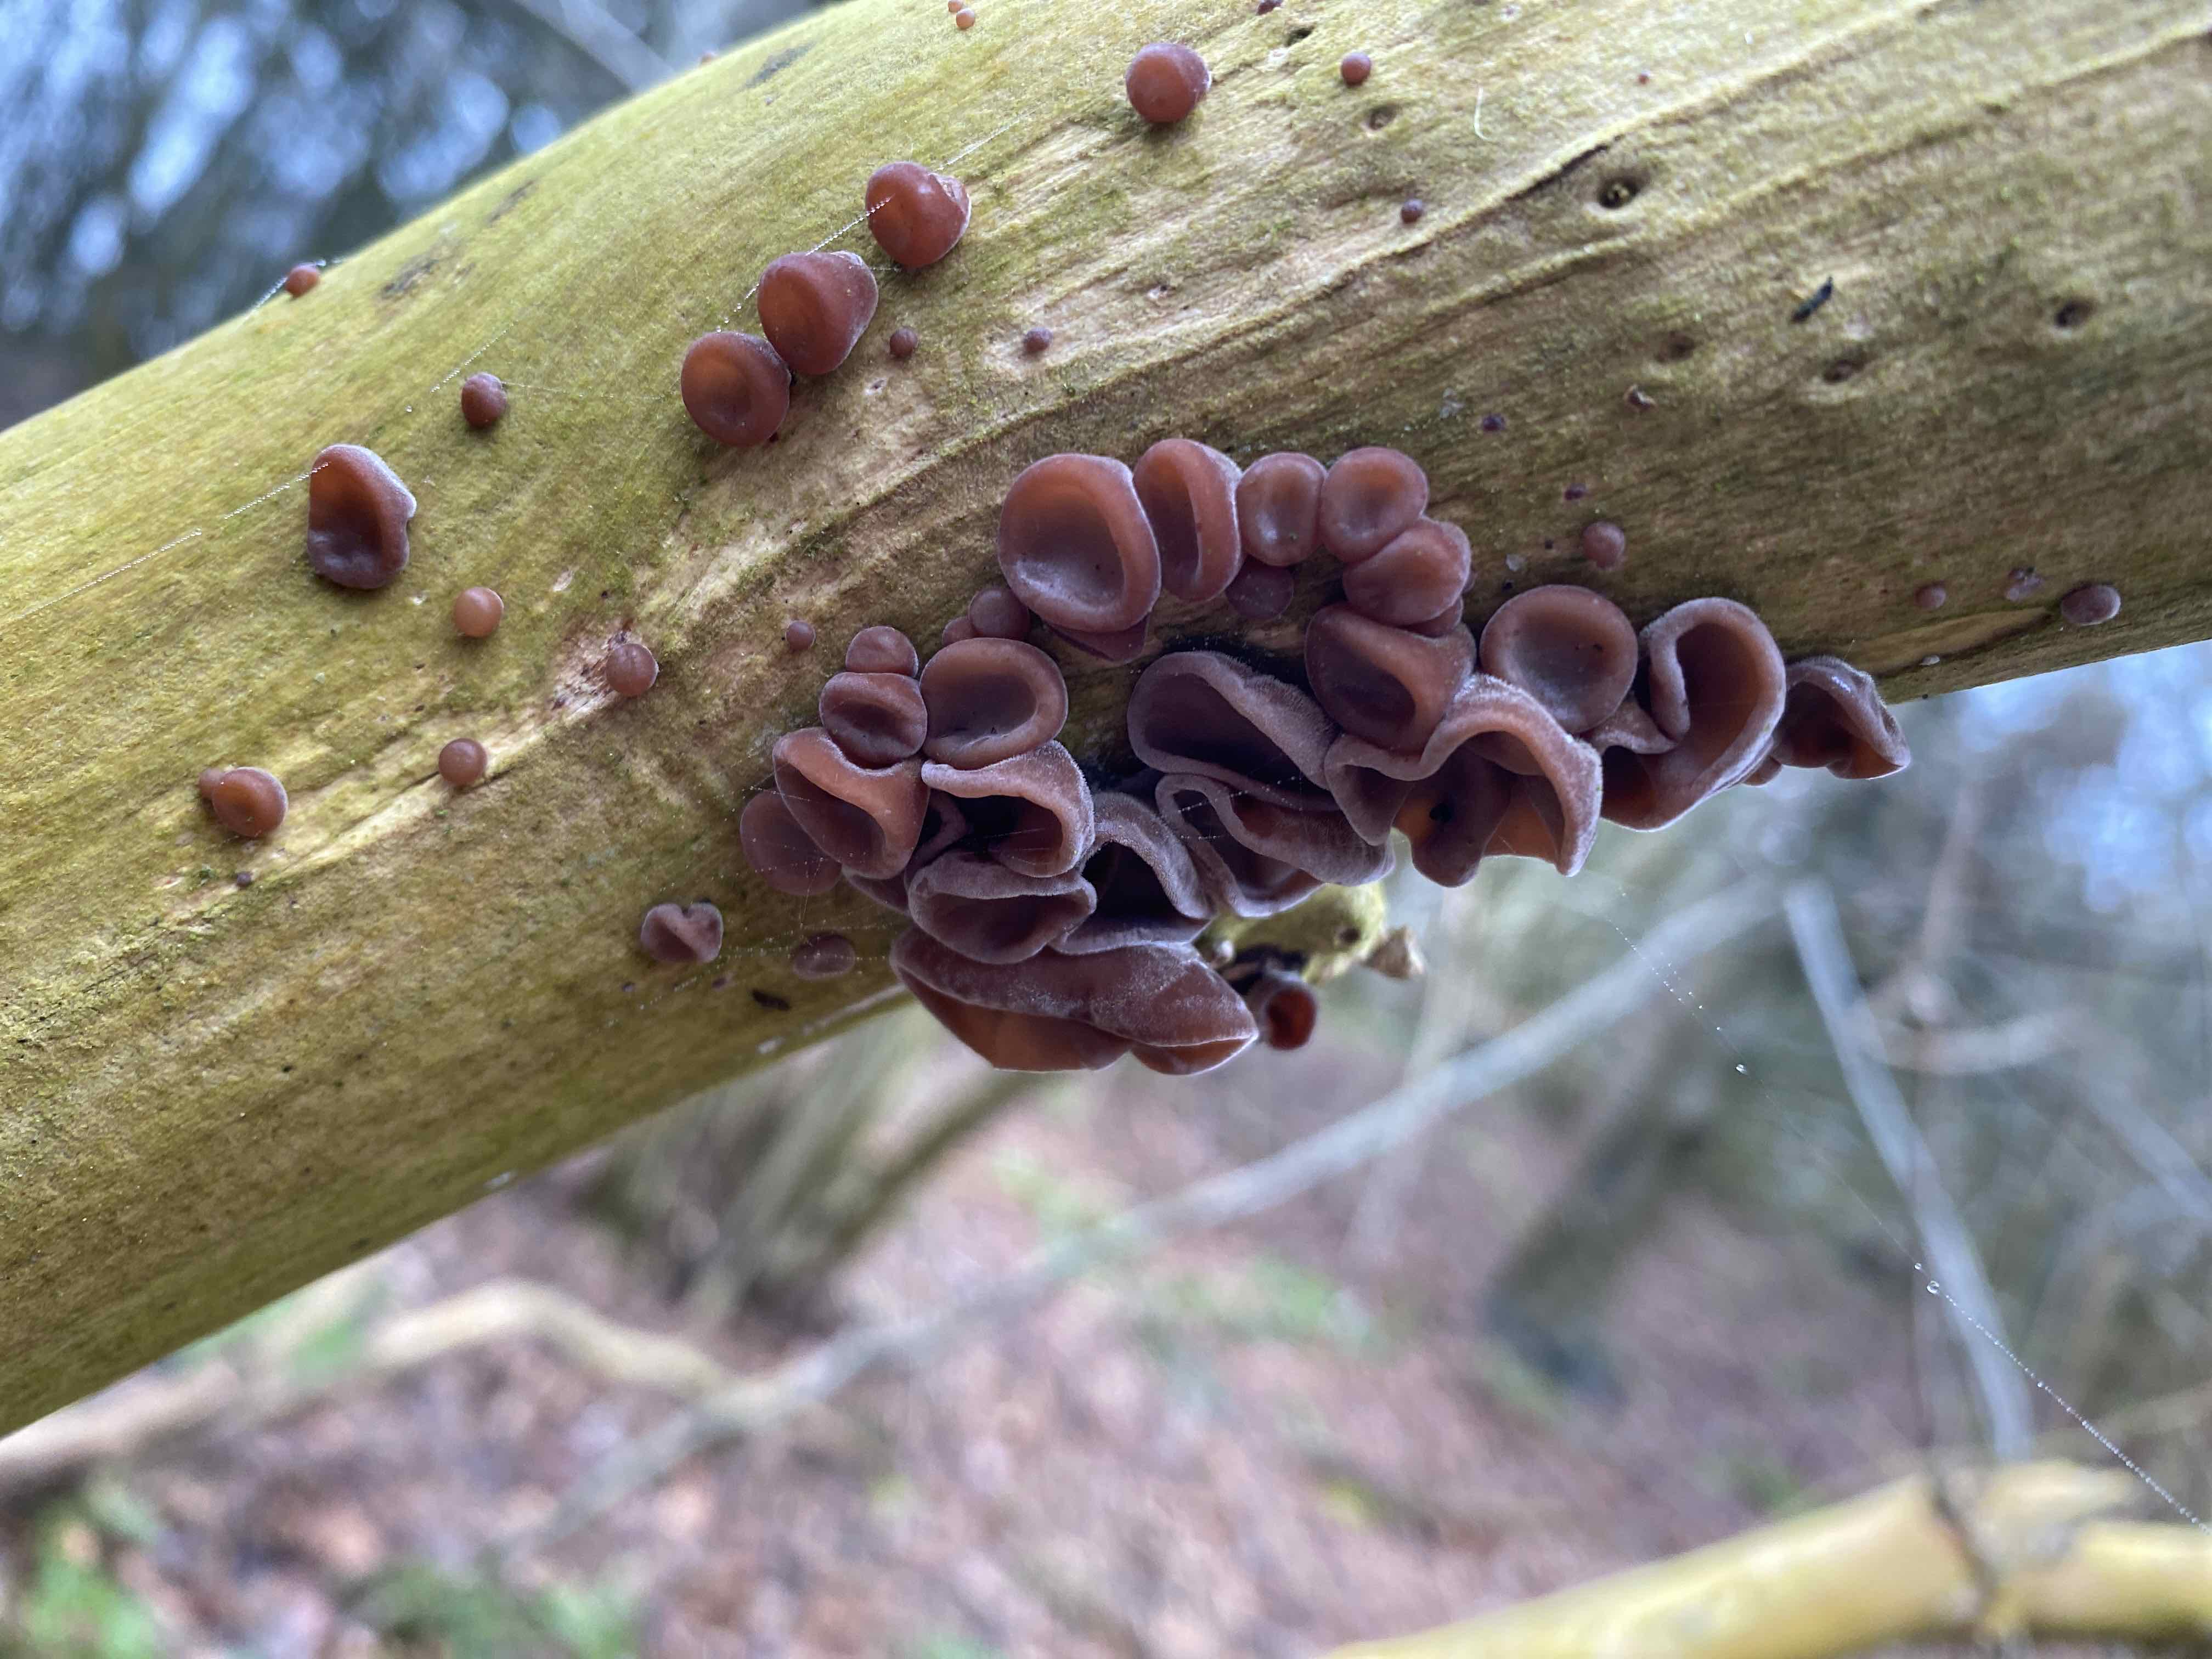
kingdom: Fungi
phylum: Basidiomycota
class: Agaricomycetes
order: Auriculariales
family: Auriculariaceae
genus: Auricularia
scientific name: Auricularia auricula-judae
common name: almindelig judasøre
